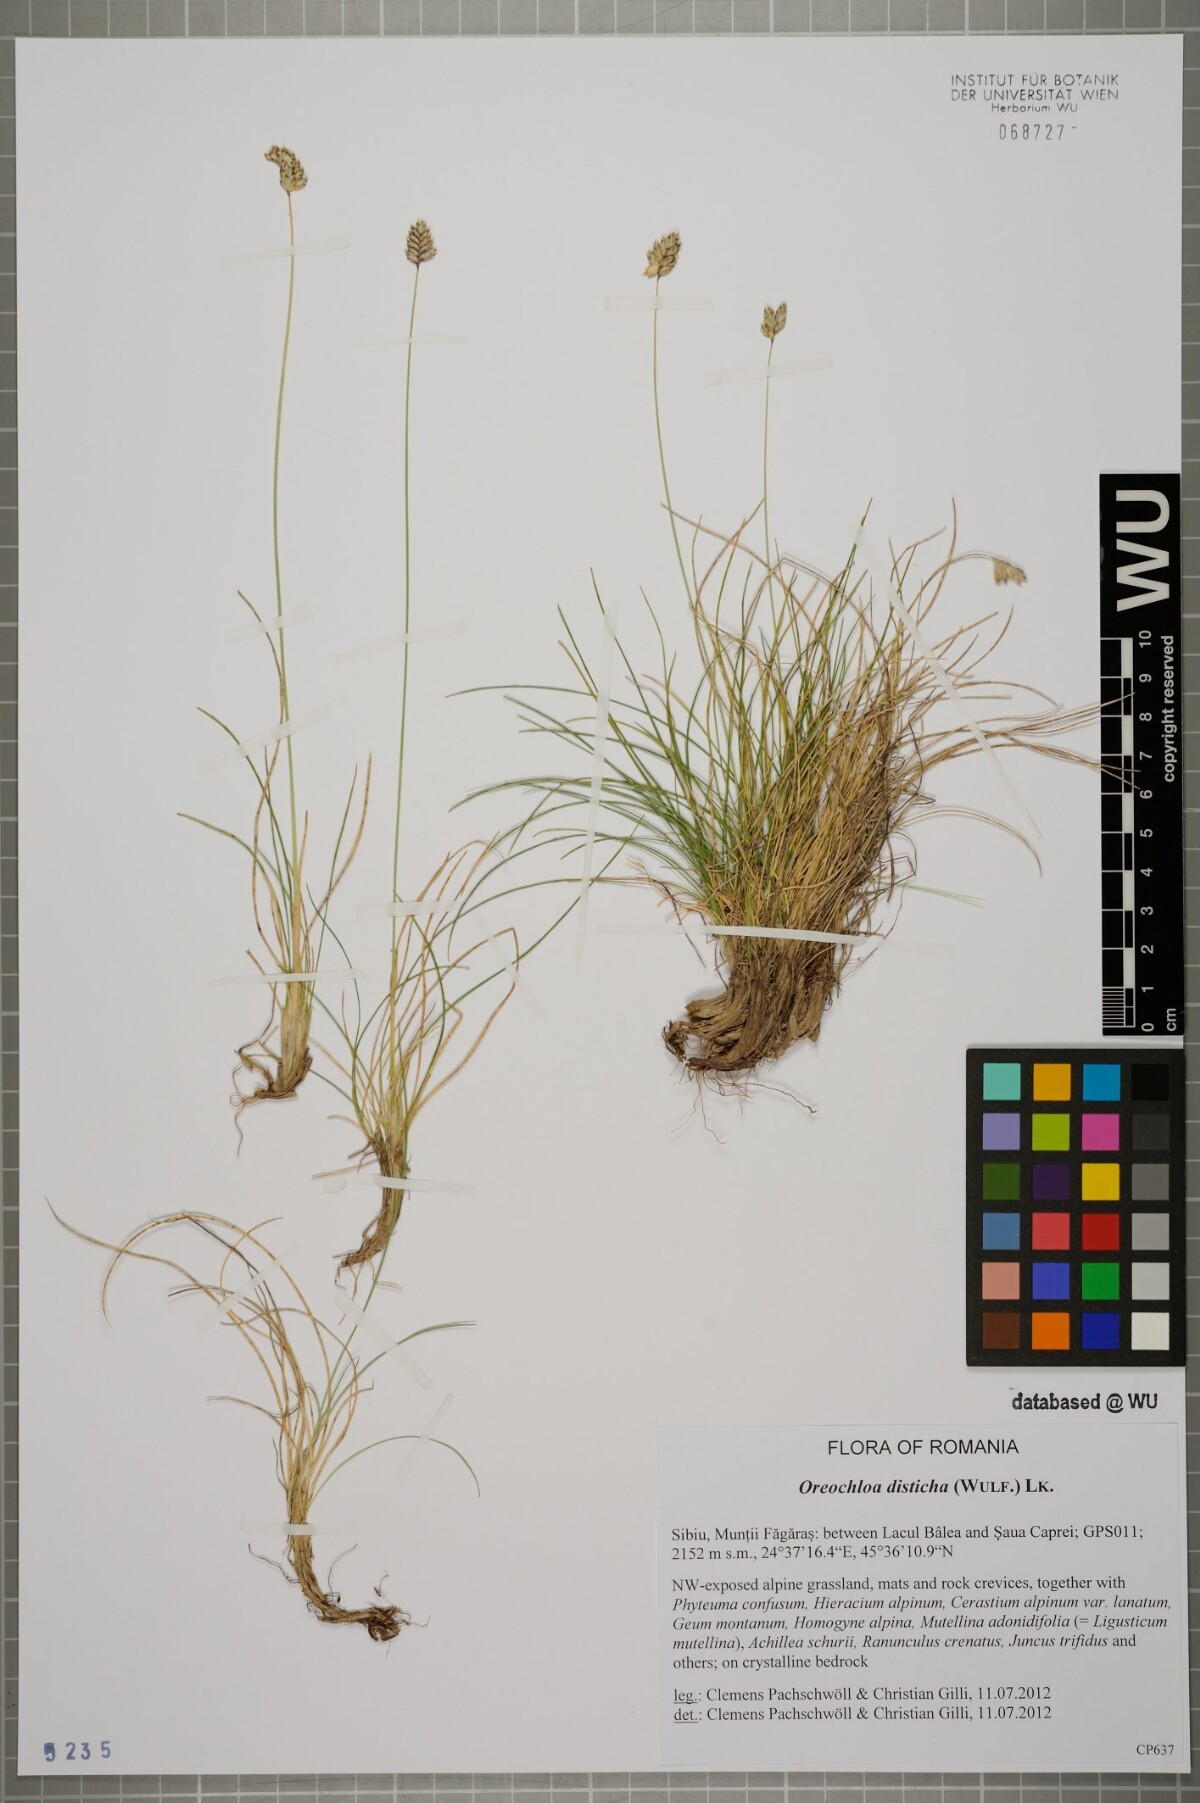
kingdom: Plantae
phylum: Tracheophyta
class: Liliopsida
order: Poales
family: Poaceae
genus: Oreochloa
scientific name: Oreochloa disticha
